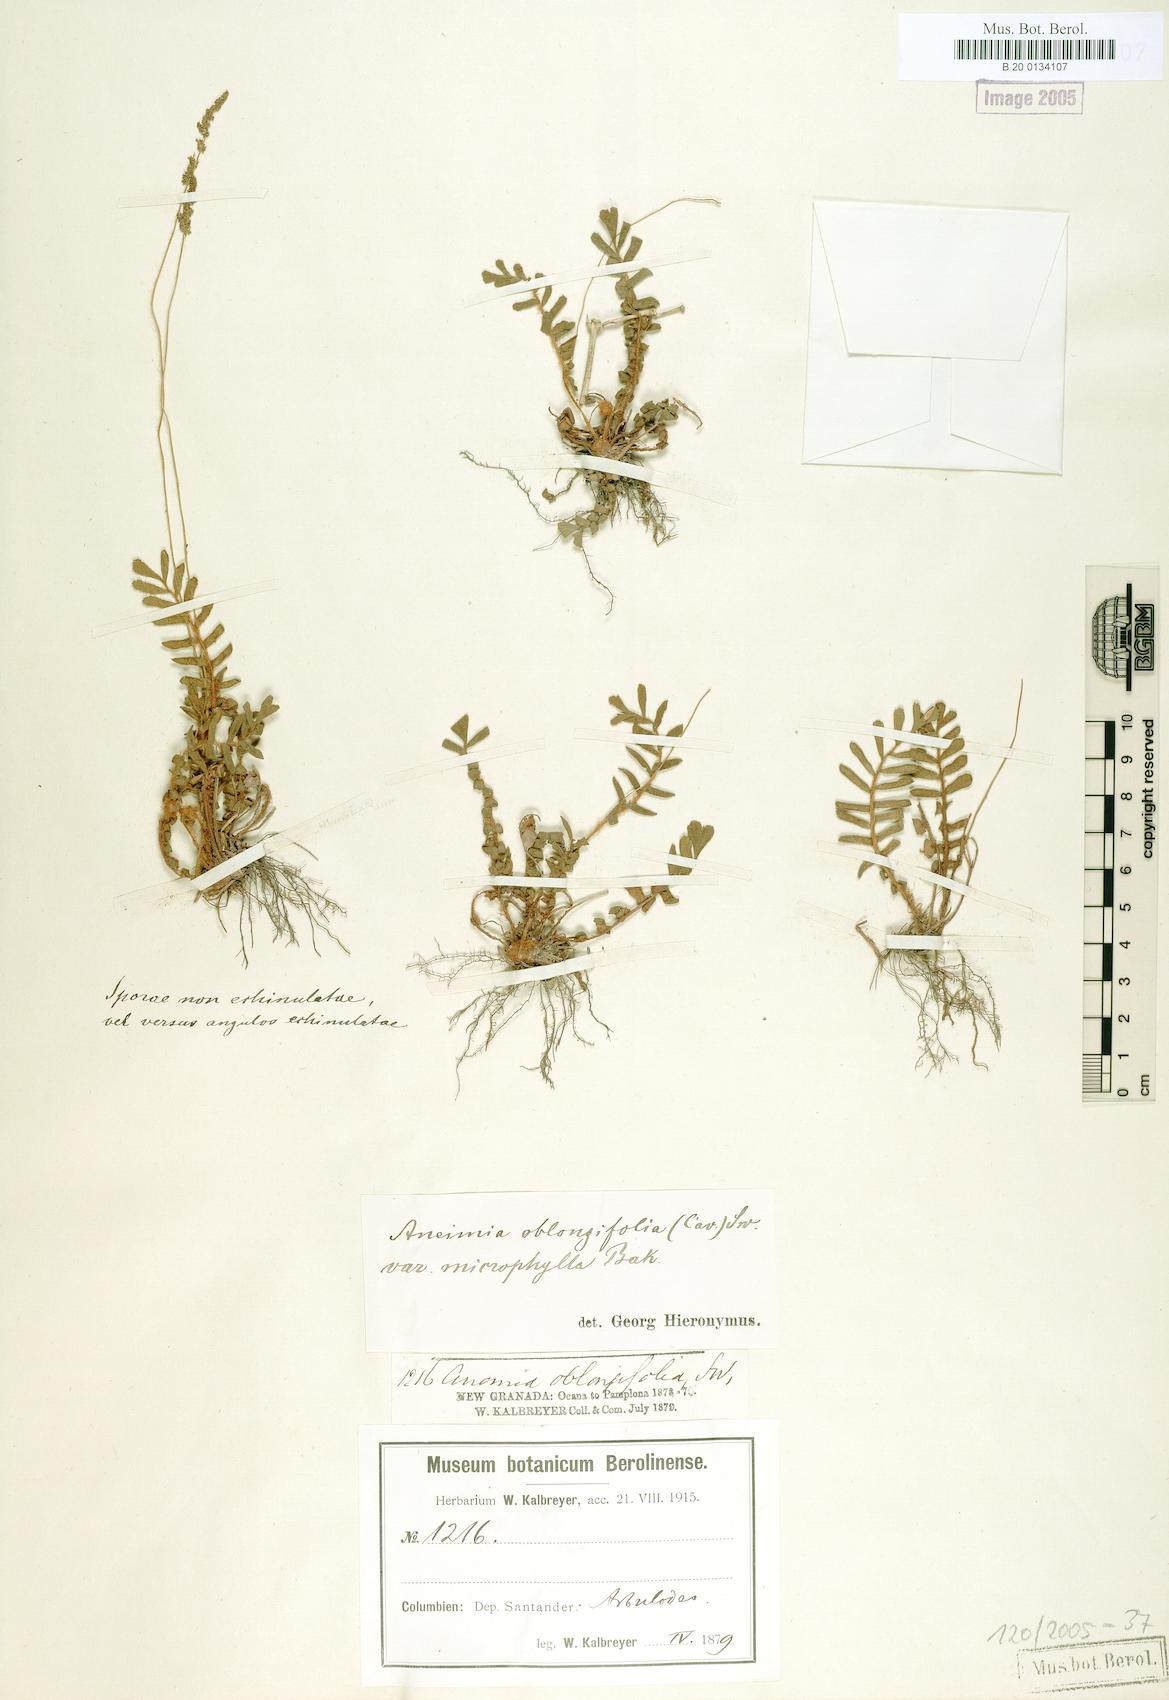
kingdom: Plantae
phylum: Tracheophyta
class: Polypodiopsida
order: Schizaeales
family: Anemiaceae
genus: Anemia
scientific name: Anemia dentata
